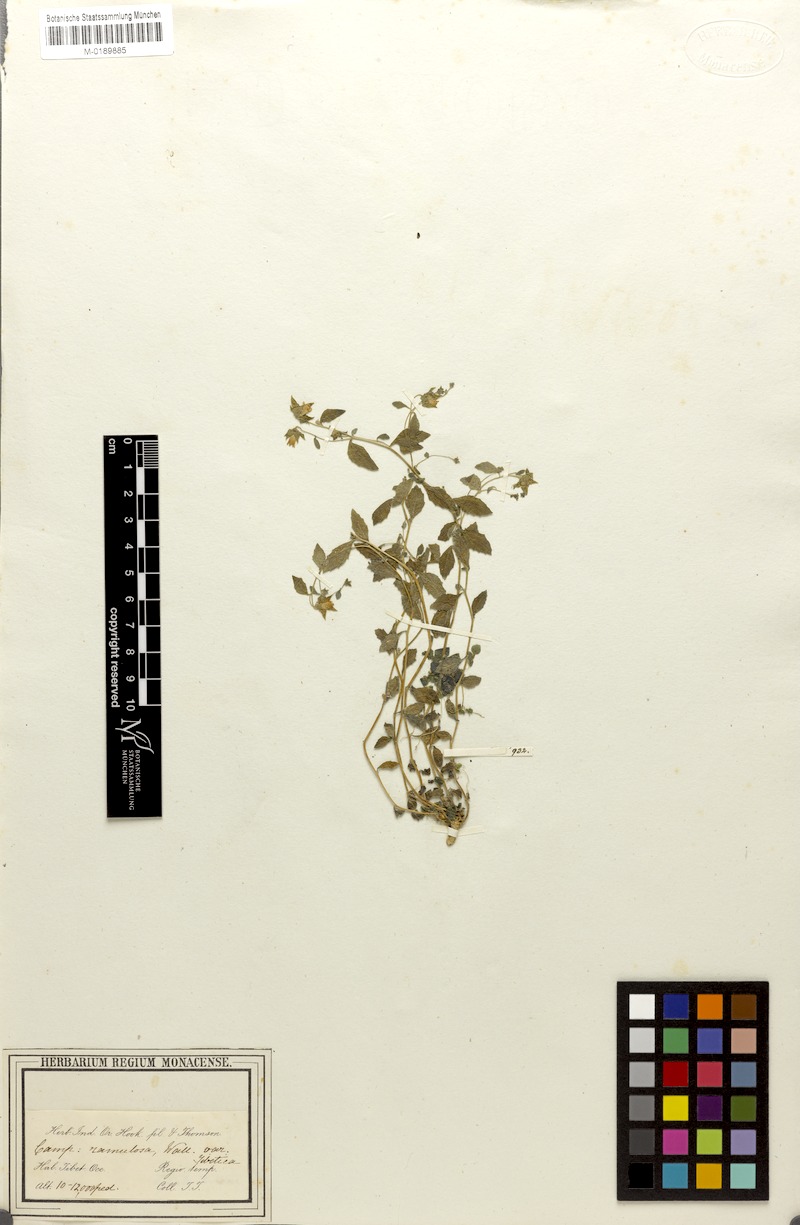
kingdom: Plantae
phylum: Tracheophyta
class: Magnoliopsida
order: Asterales
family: Campanulaceae
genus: Campanula
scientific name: Campanula pallida
